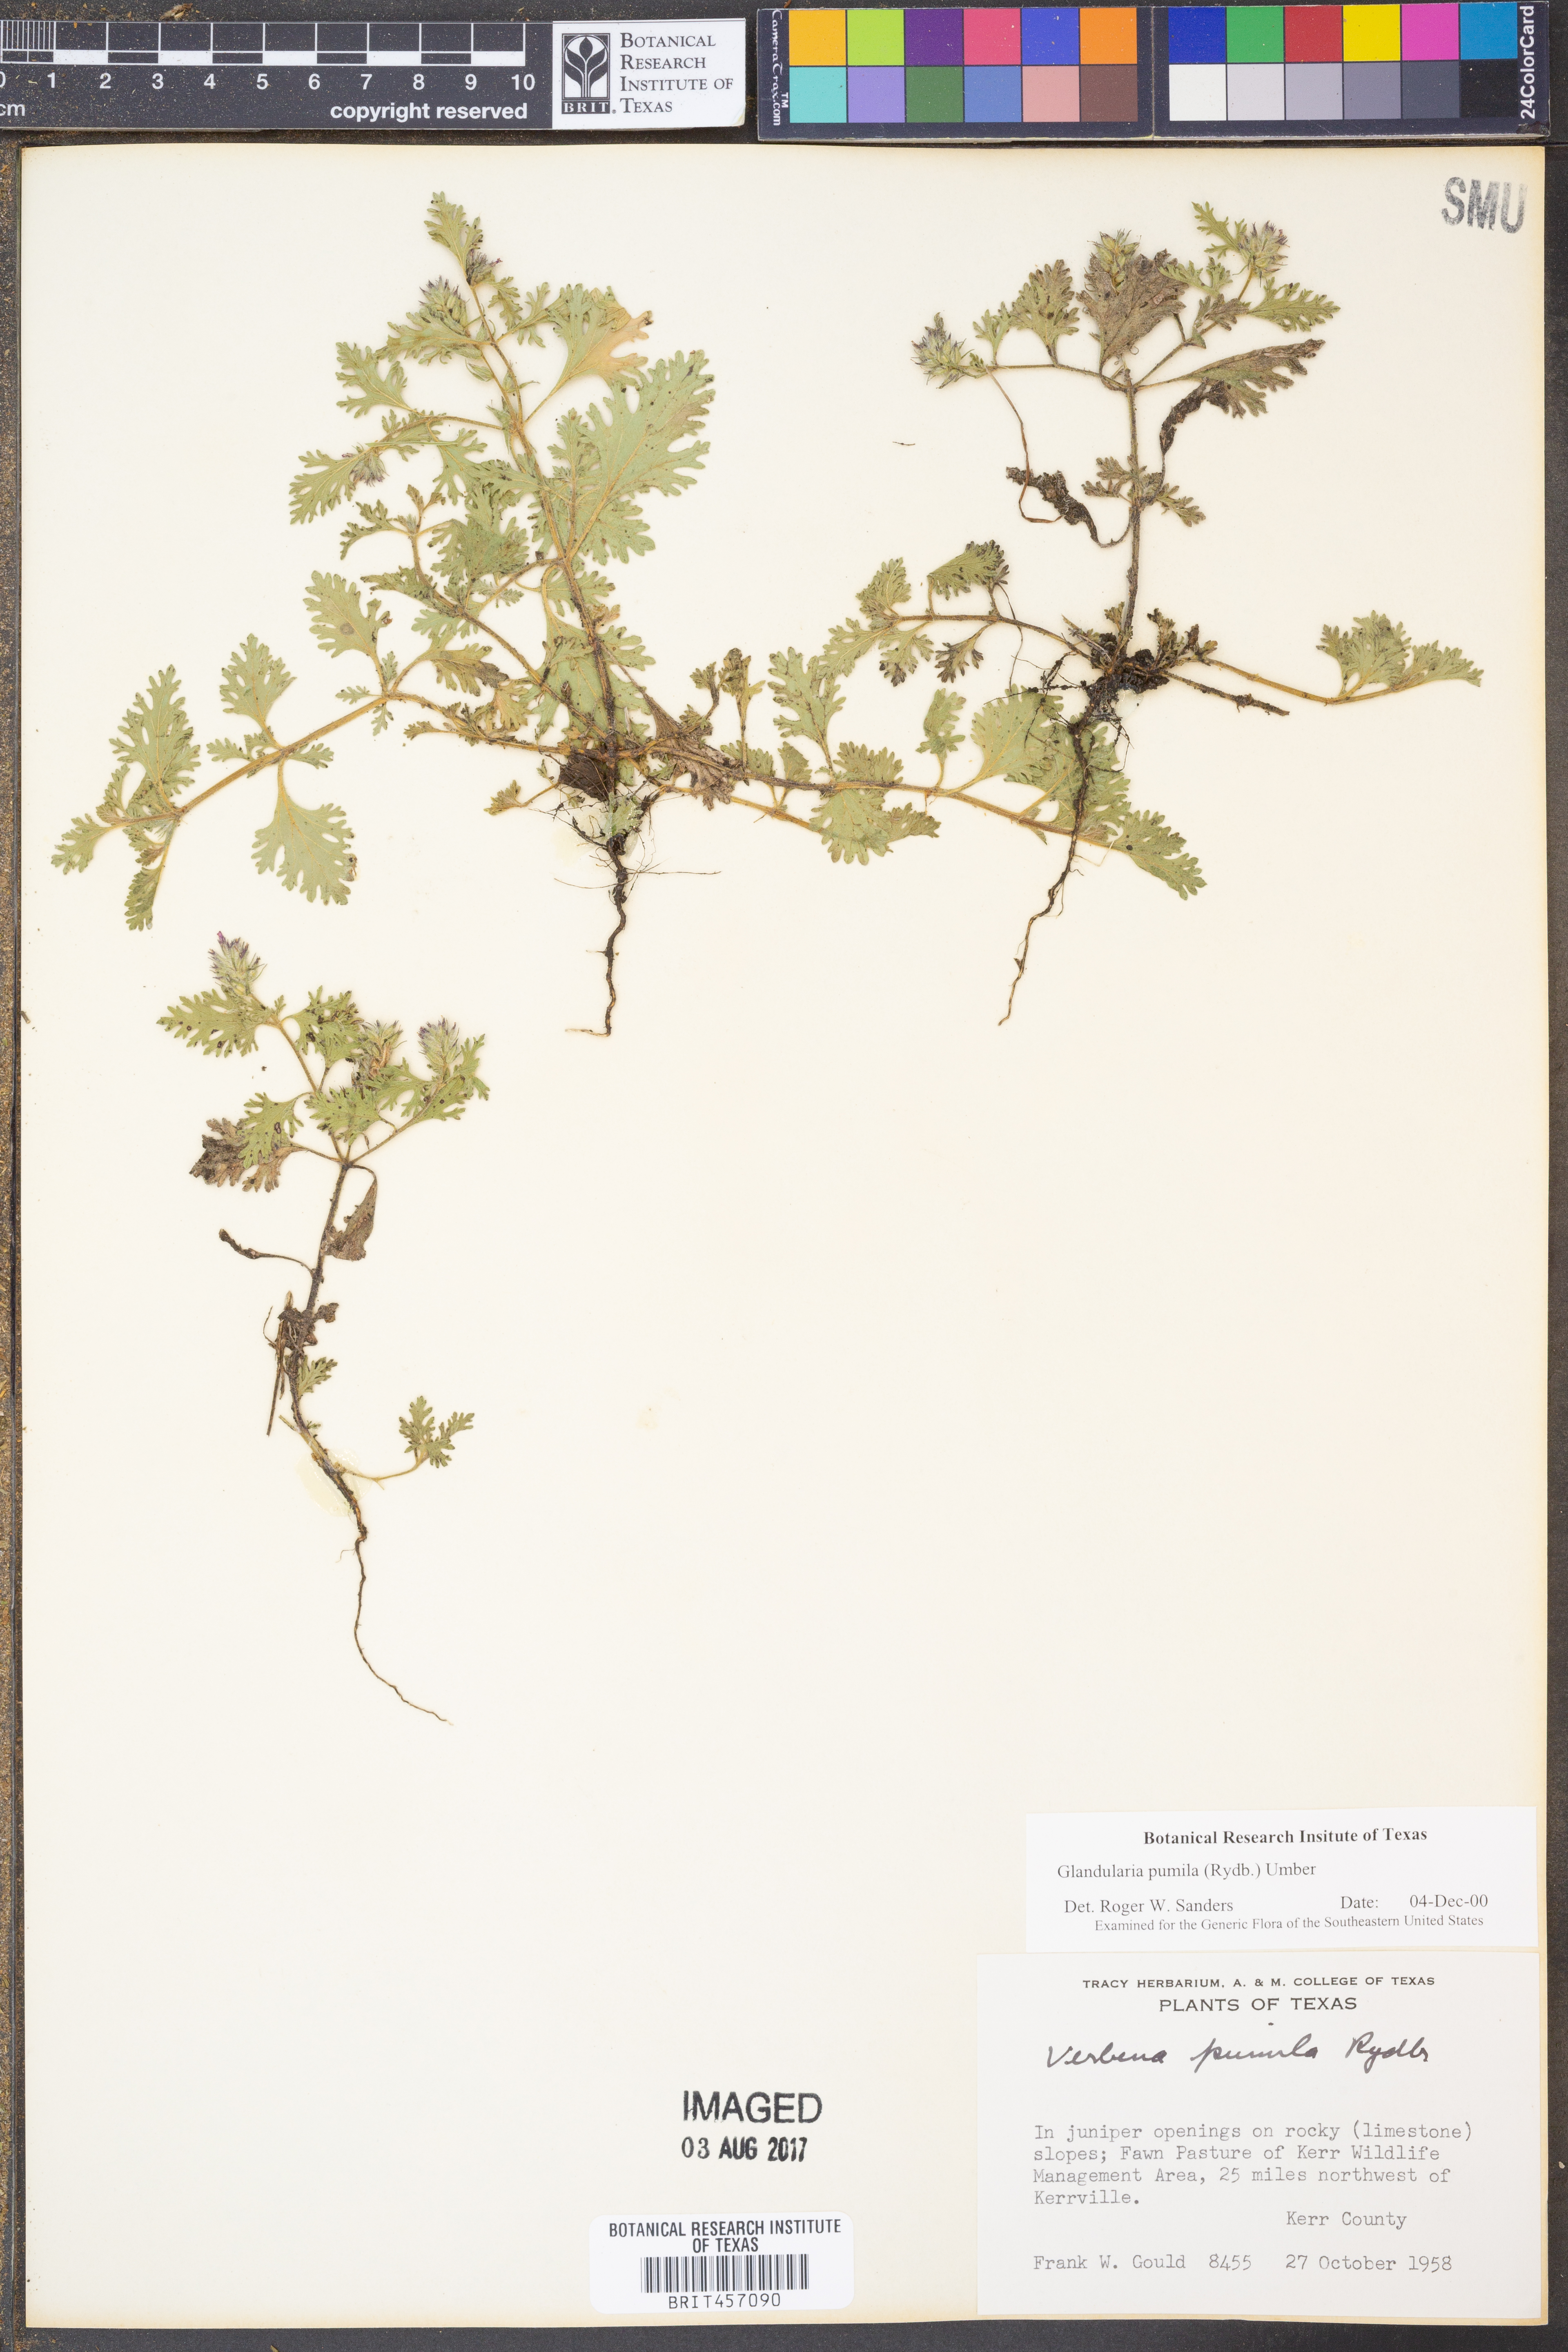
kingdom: Plantae
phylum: Tracheophyta
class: Magnoliopsida
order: Lamiales
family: Verbenaceae
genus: Verbena
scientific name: Verbena pumila
